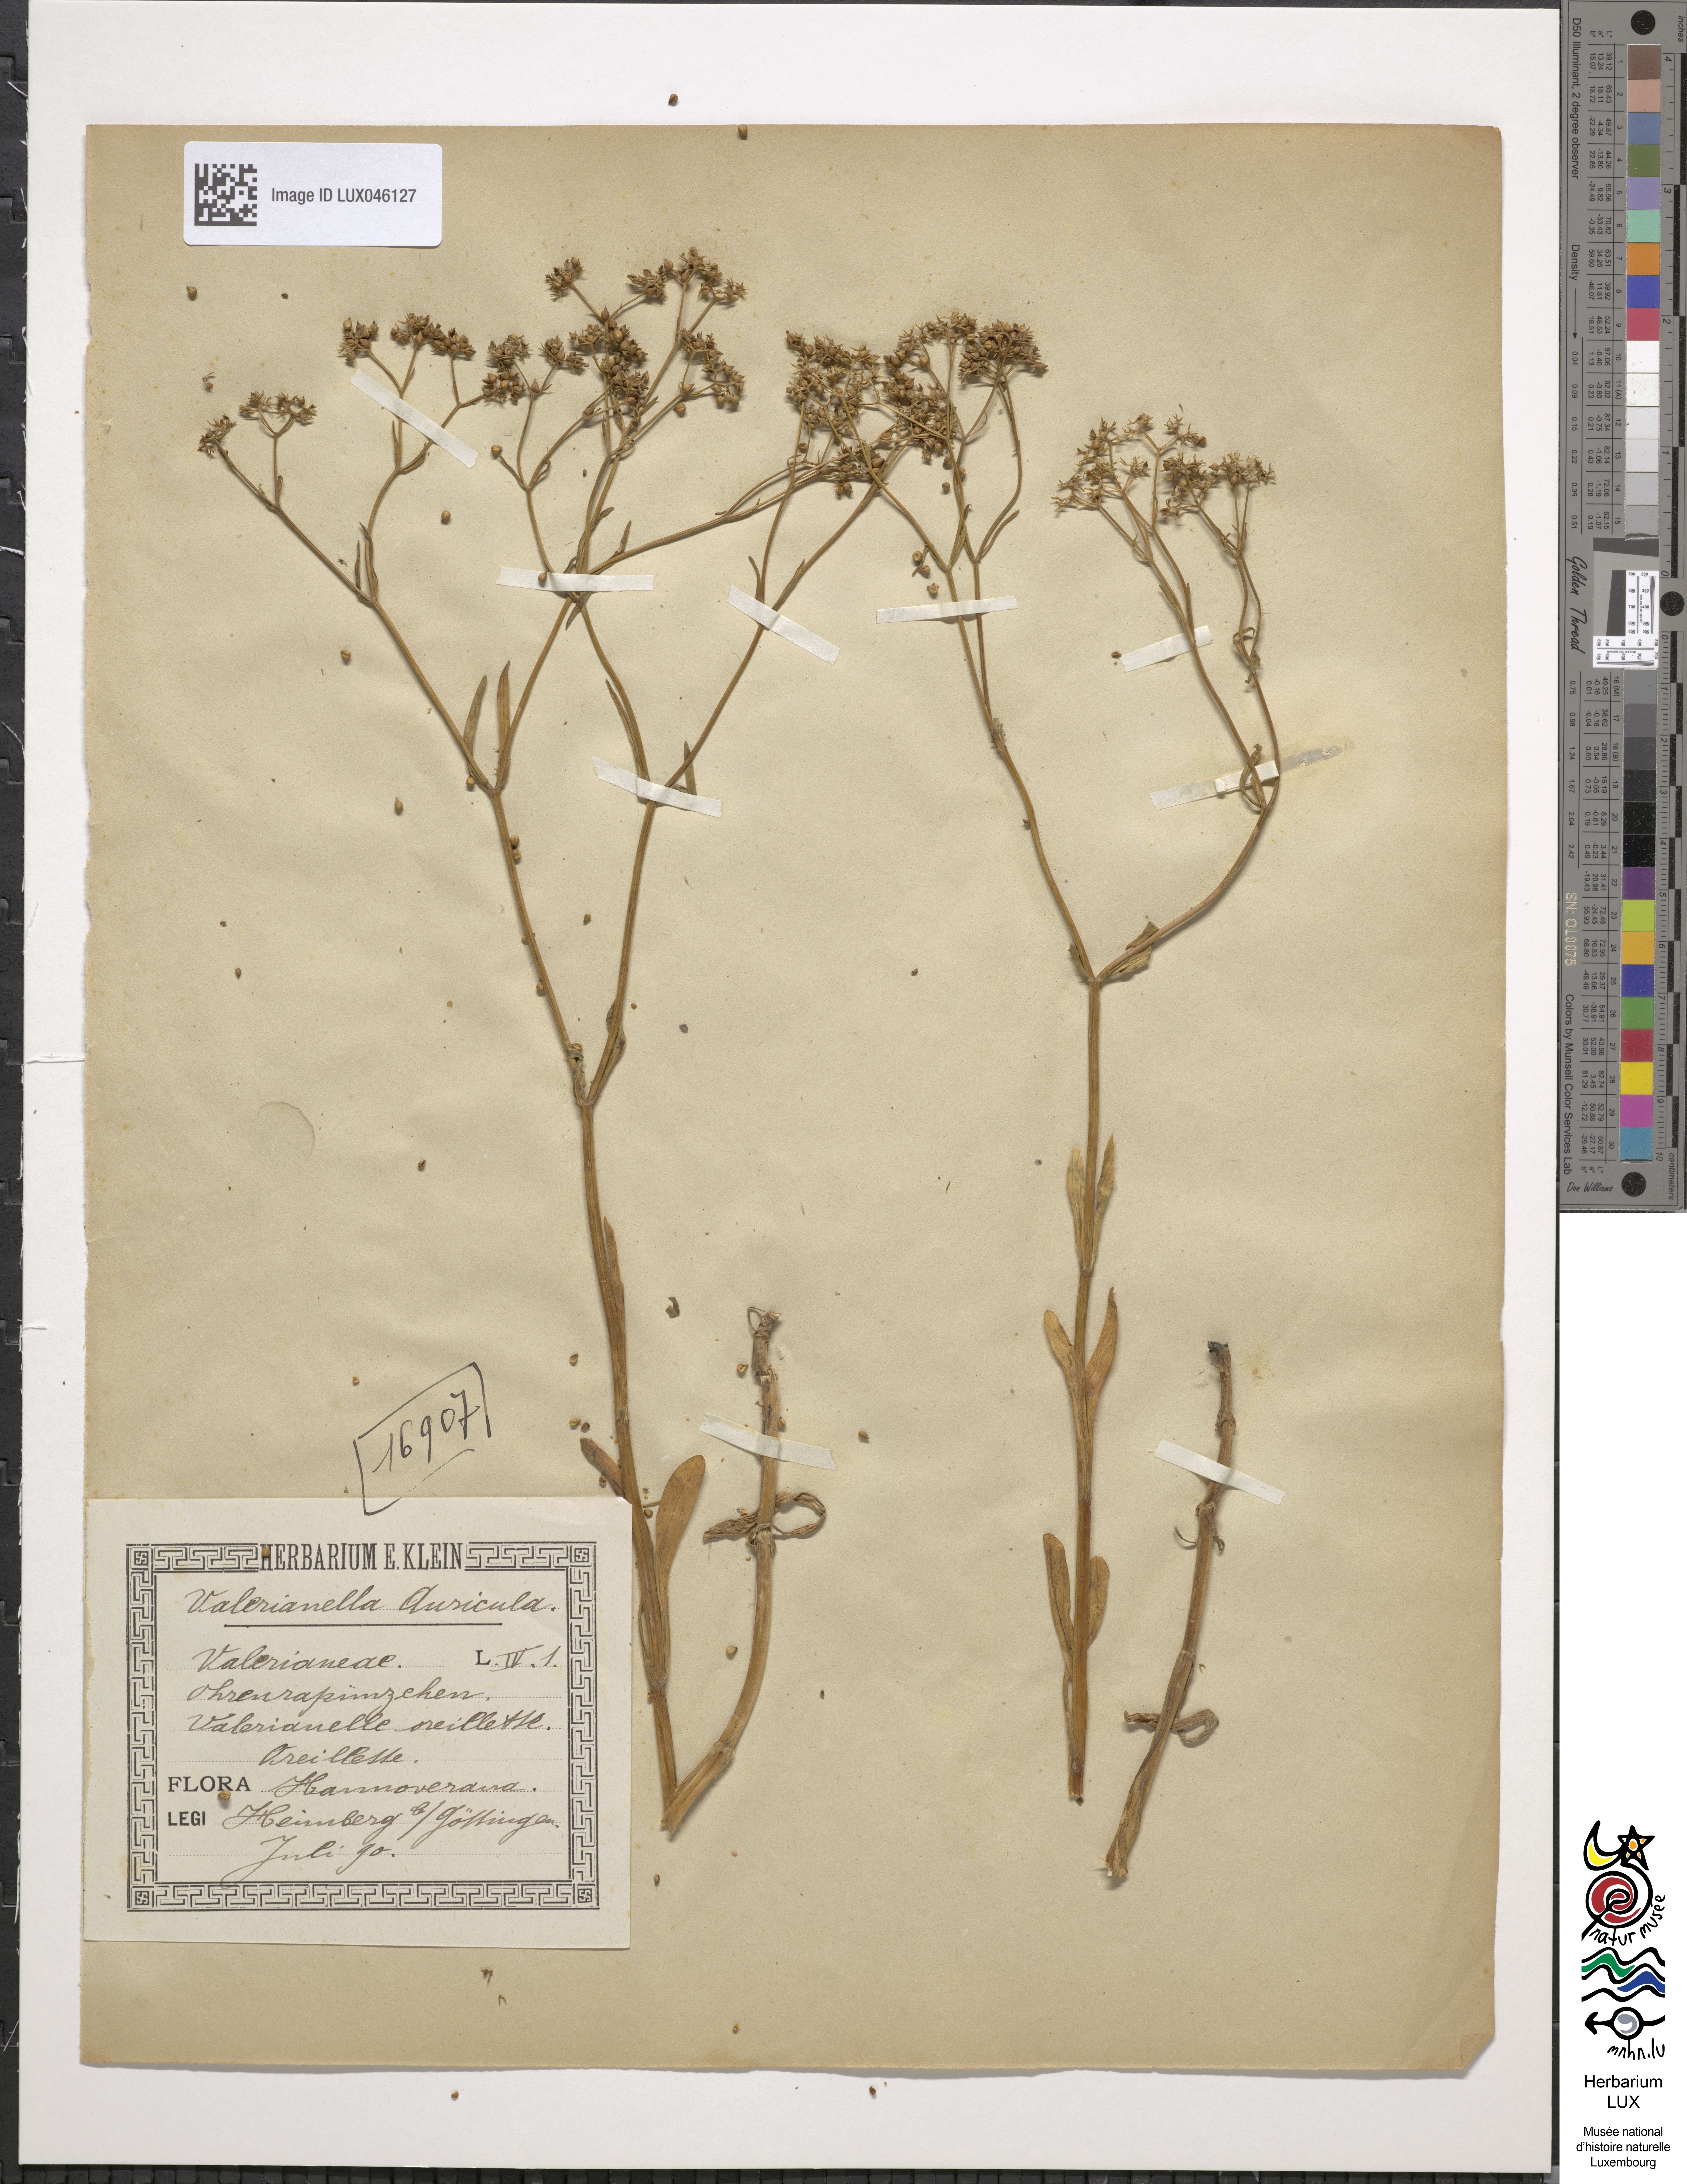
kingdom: Plantae
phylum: Tracheophyta
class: Magnoliopsida
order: Dipsacales
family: Caprifoliaceae
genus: Valerianella
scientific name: Valerianella rimosa
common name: Broad-fruited cornsalad
